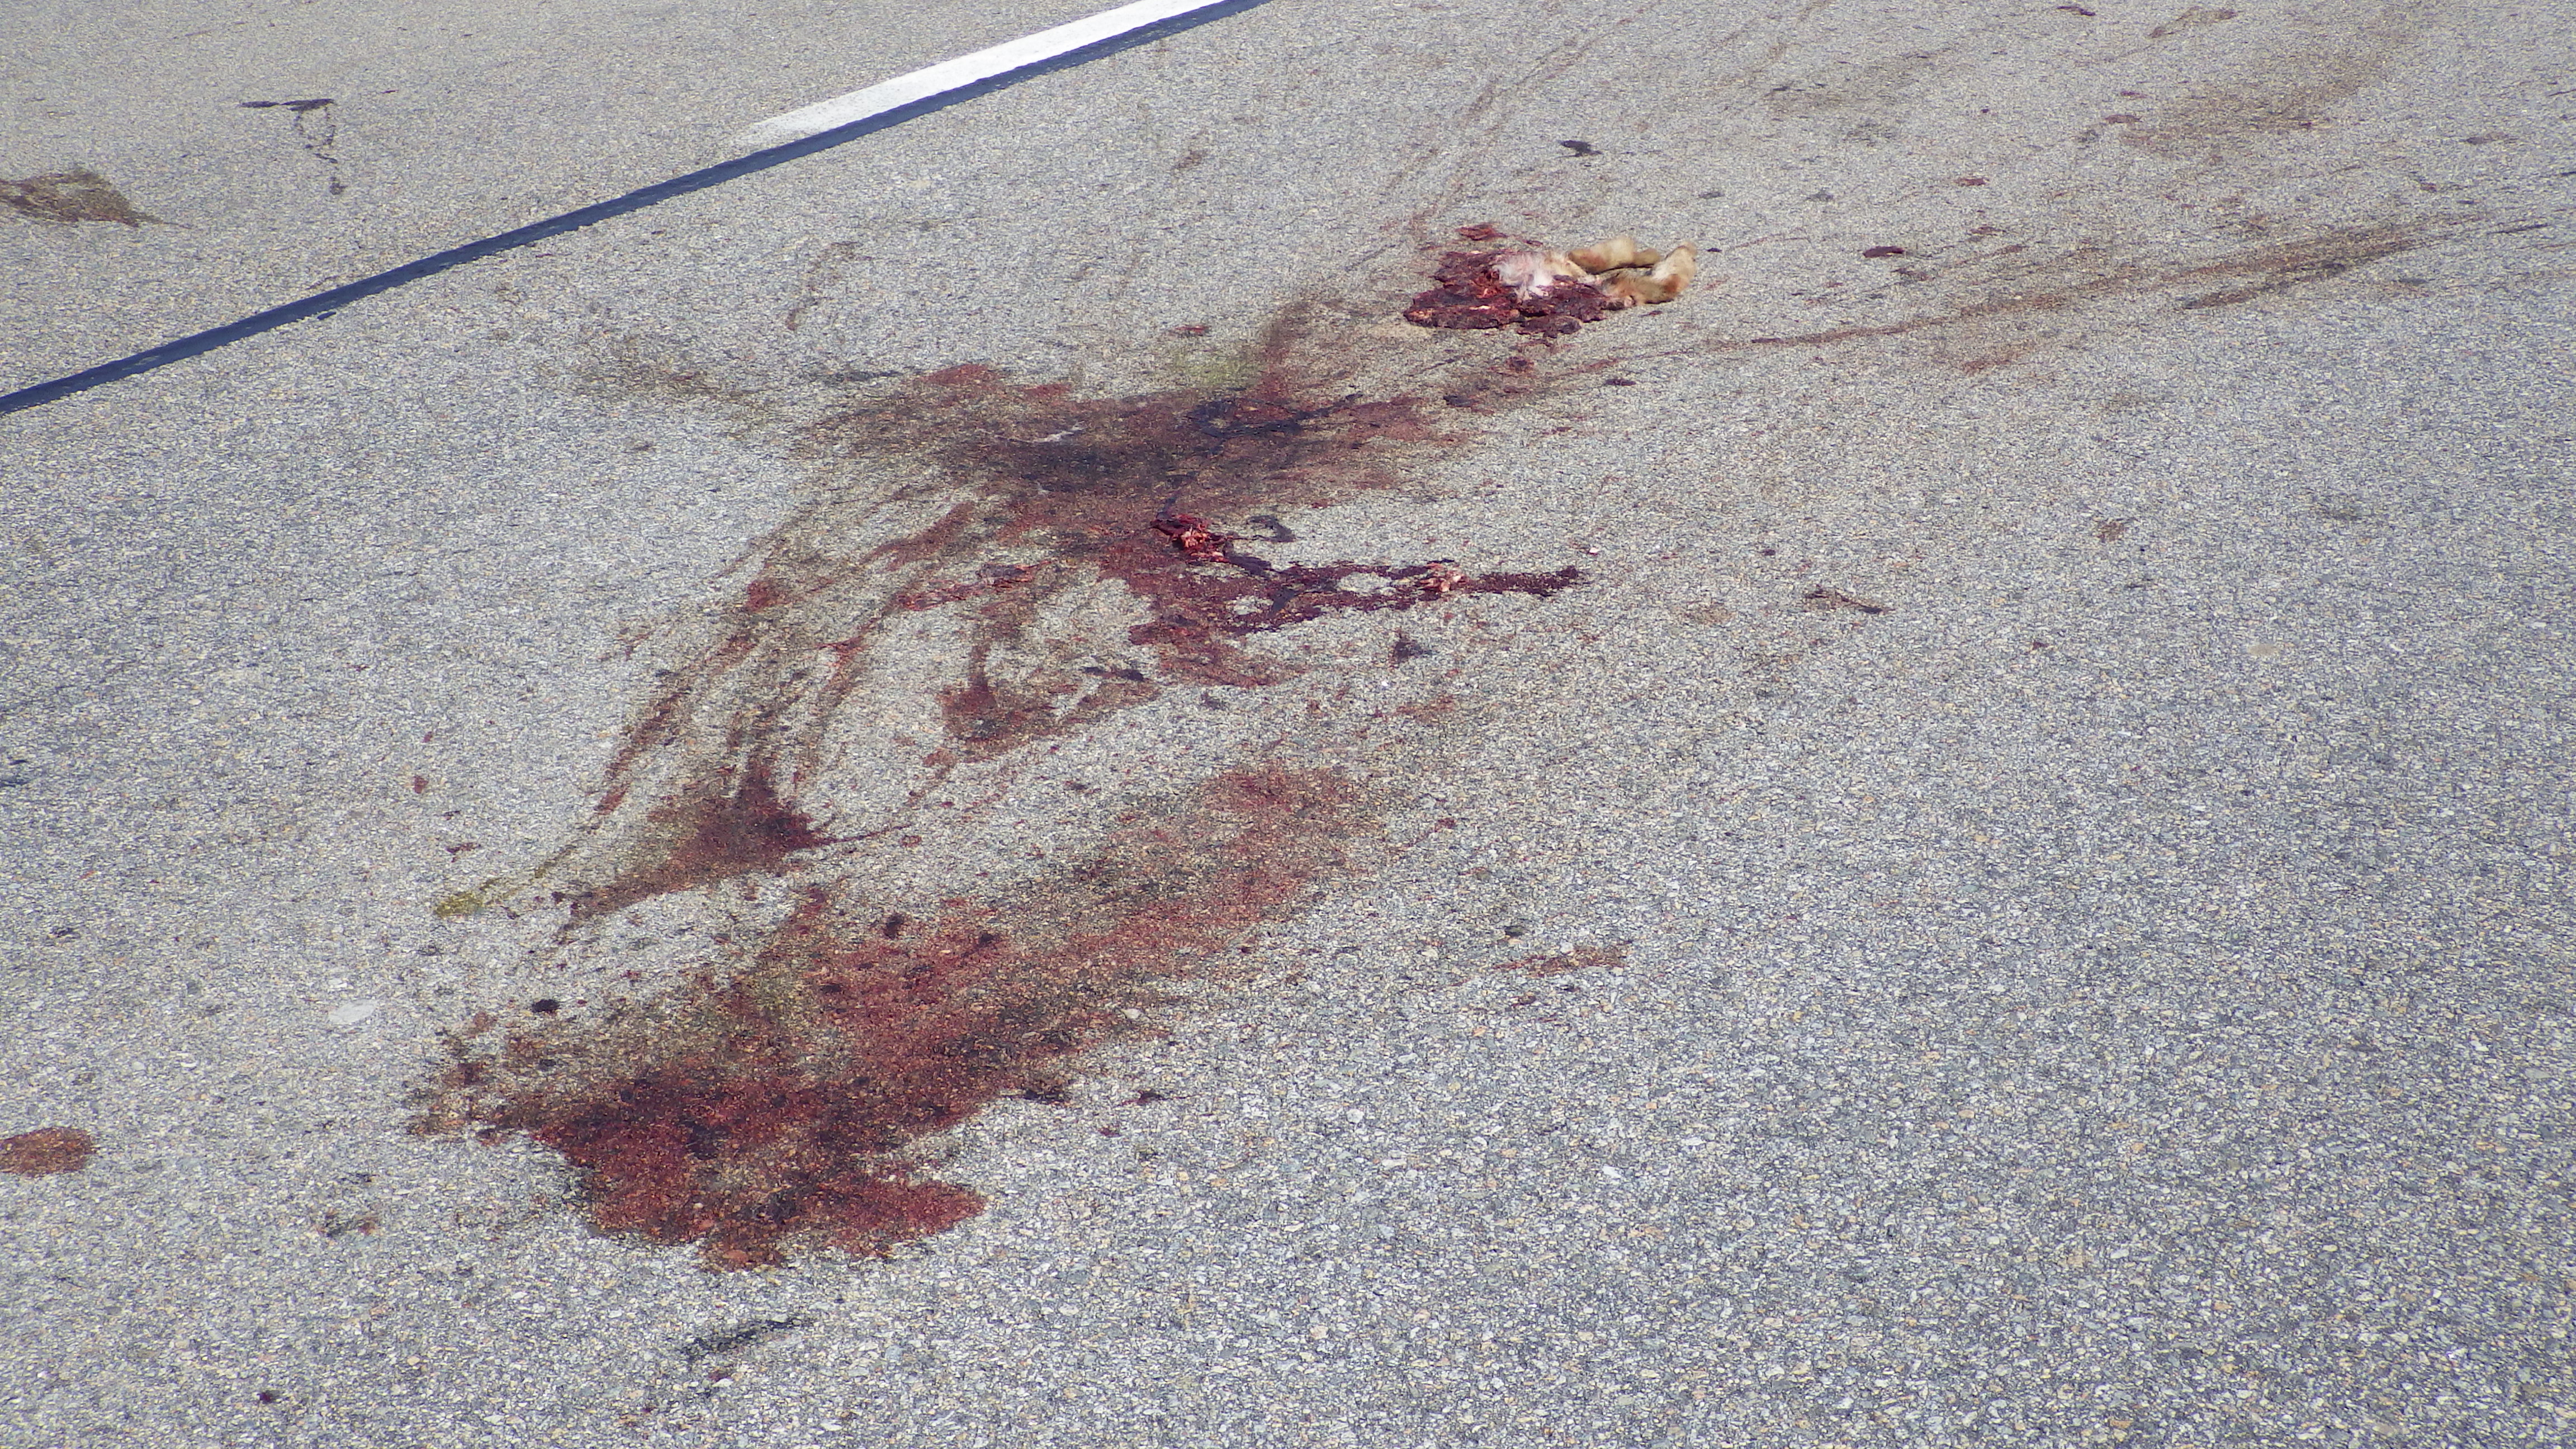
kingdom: Animalia
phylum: Chordata
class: Mammalia
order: Lagomorpha
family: Leporidae
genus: Lepus
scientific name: Lepus europaeus
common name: European hare
